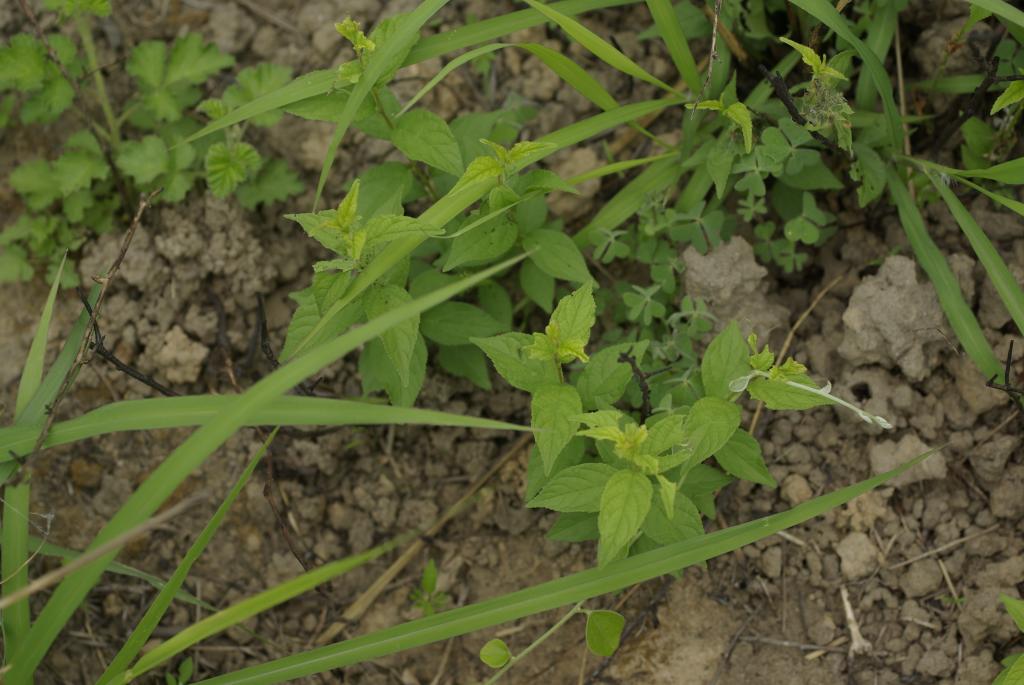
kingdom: Plantae
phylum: Tracheophyta
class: Magnoliopsida
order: Rosales
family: Rosaceae
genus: Prunus
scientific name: Prunus pogonostyla
